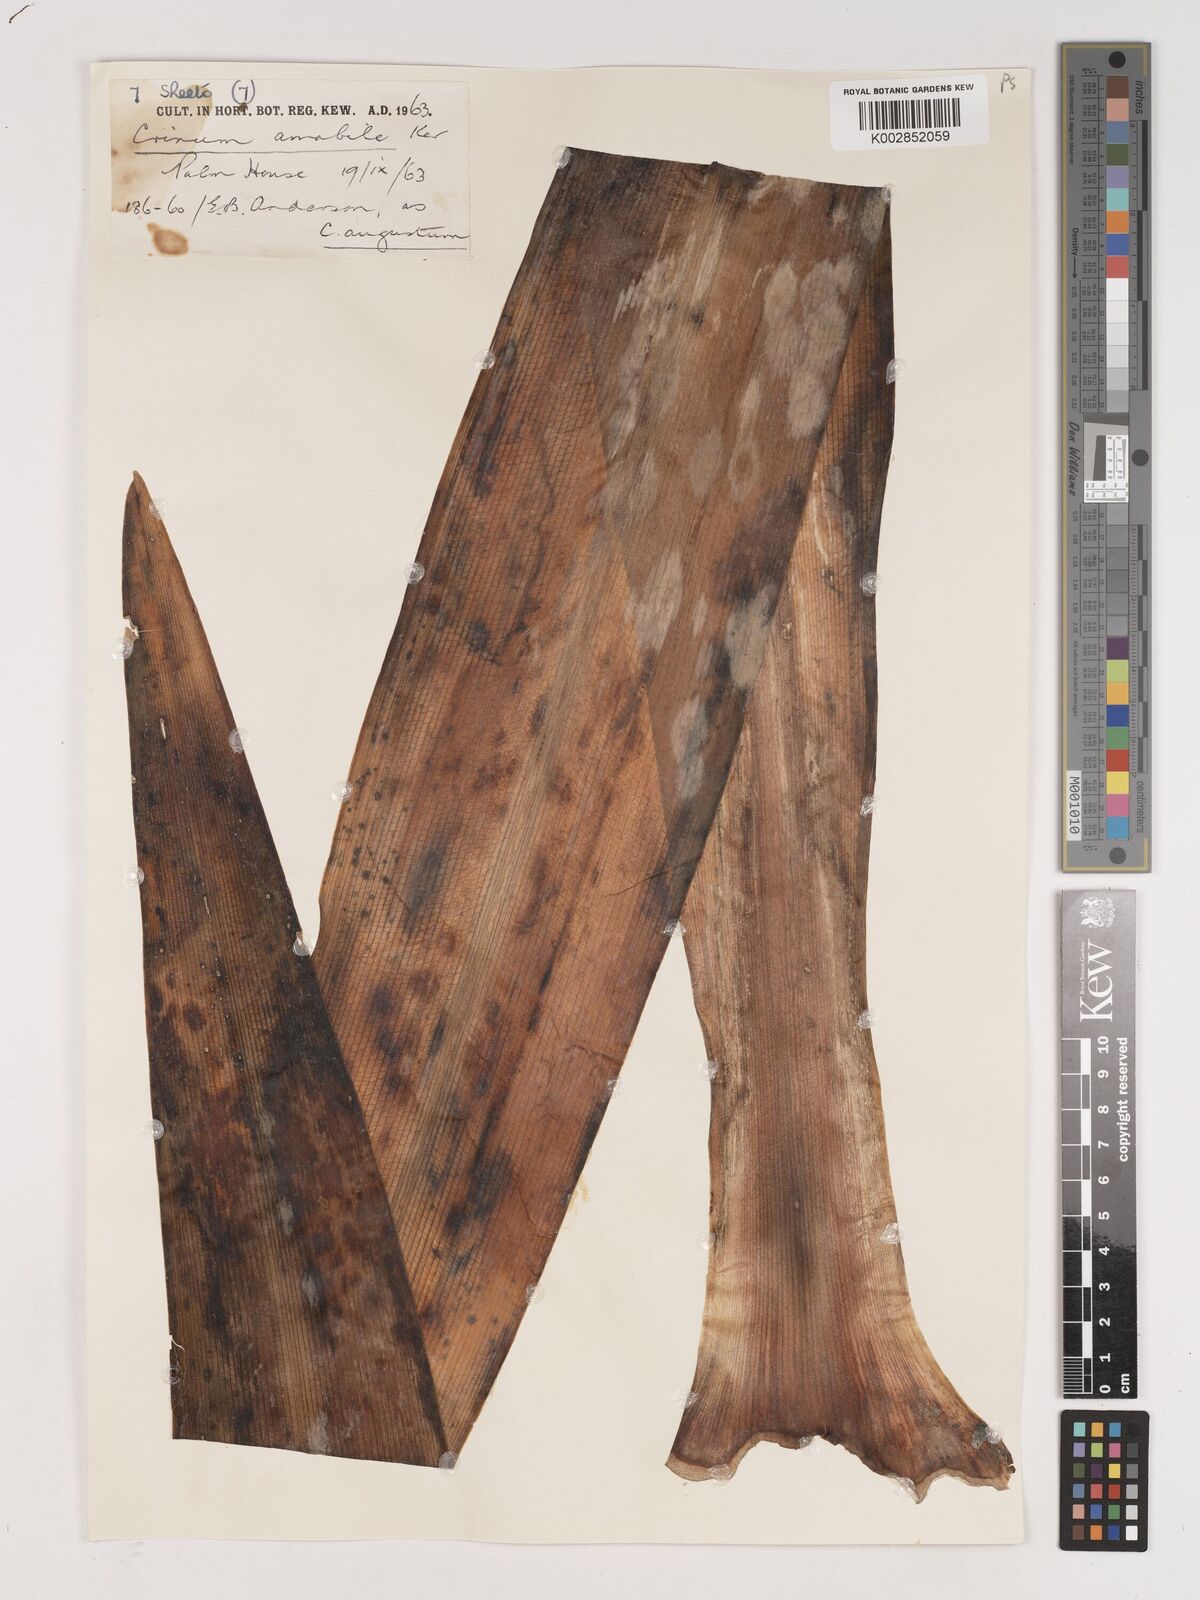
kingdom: Plantae
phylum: Tracheophyta
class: Liliopsida
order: Asparagales
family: Amaryllidaceae
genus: Crinum
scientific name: Crinum amabile
